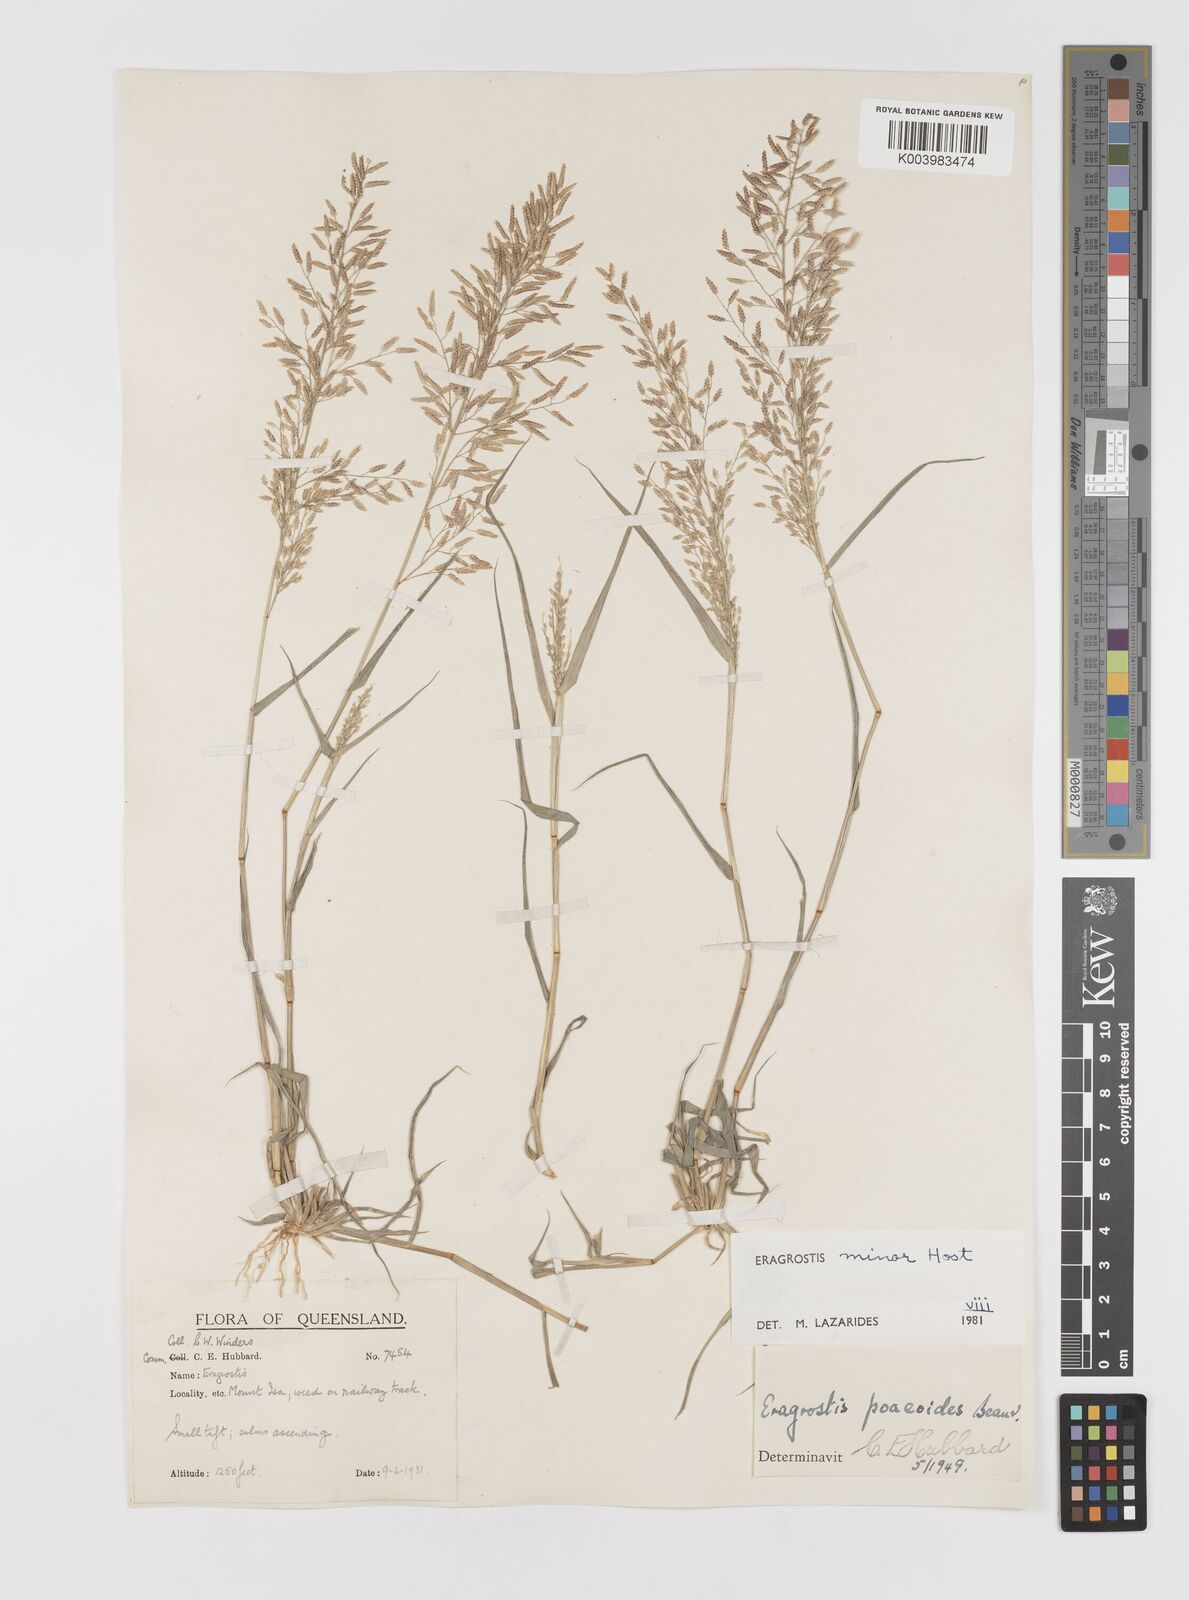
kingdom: Plantae
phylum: Tracheophyta
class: Liliopsida
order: Poales
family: Poaceae
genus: Eragrostis
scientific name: Eragrostis minor
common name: Small love-grass
